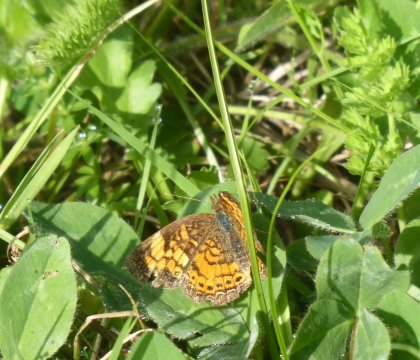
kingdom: Animalia
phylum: Arthropoda
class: Insecta
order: Lepidoptera
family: Nymphalidae
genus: Phyciodes
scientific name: Phyciodes
